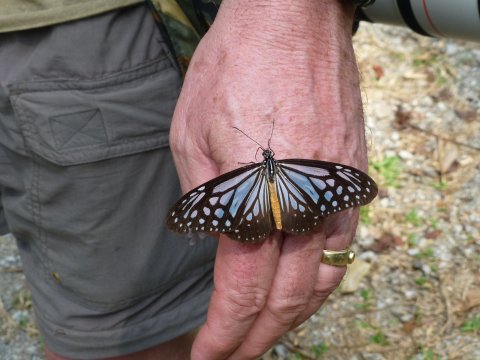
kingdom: Animalia
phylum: Arthropoda
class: Insecta
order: Lepidoptera
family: Nymphalidae
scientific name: Nymphalidae
